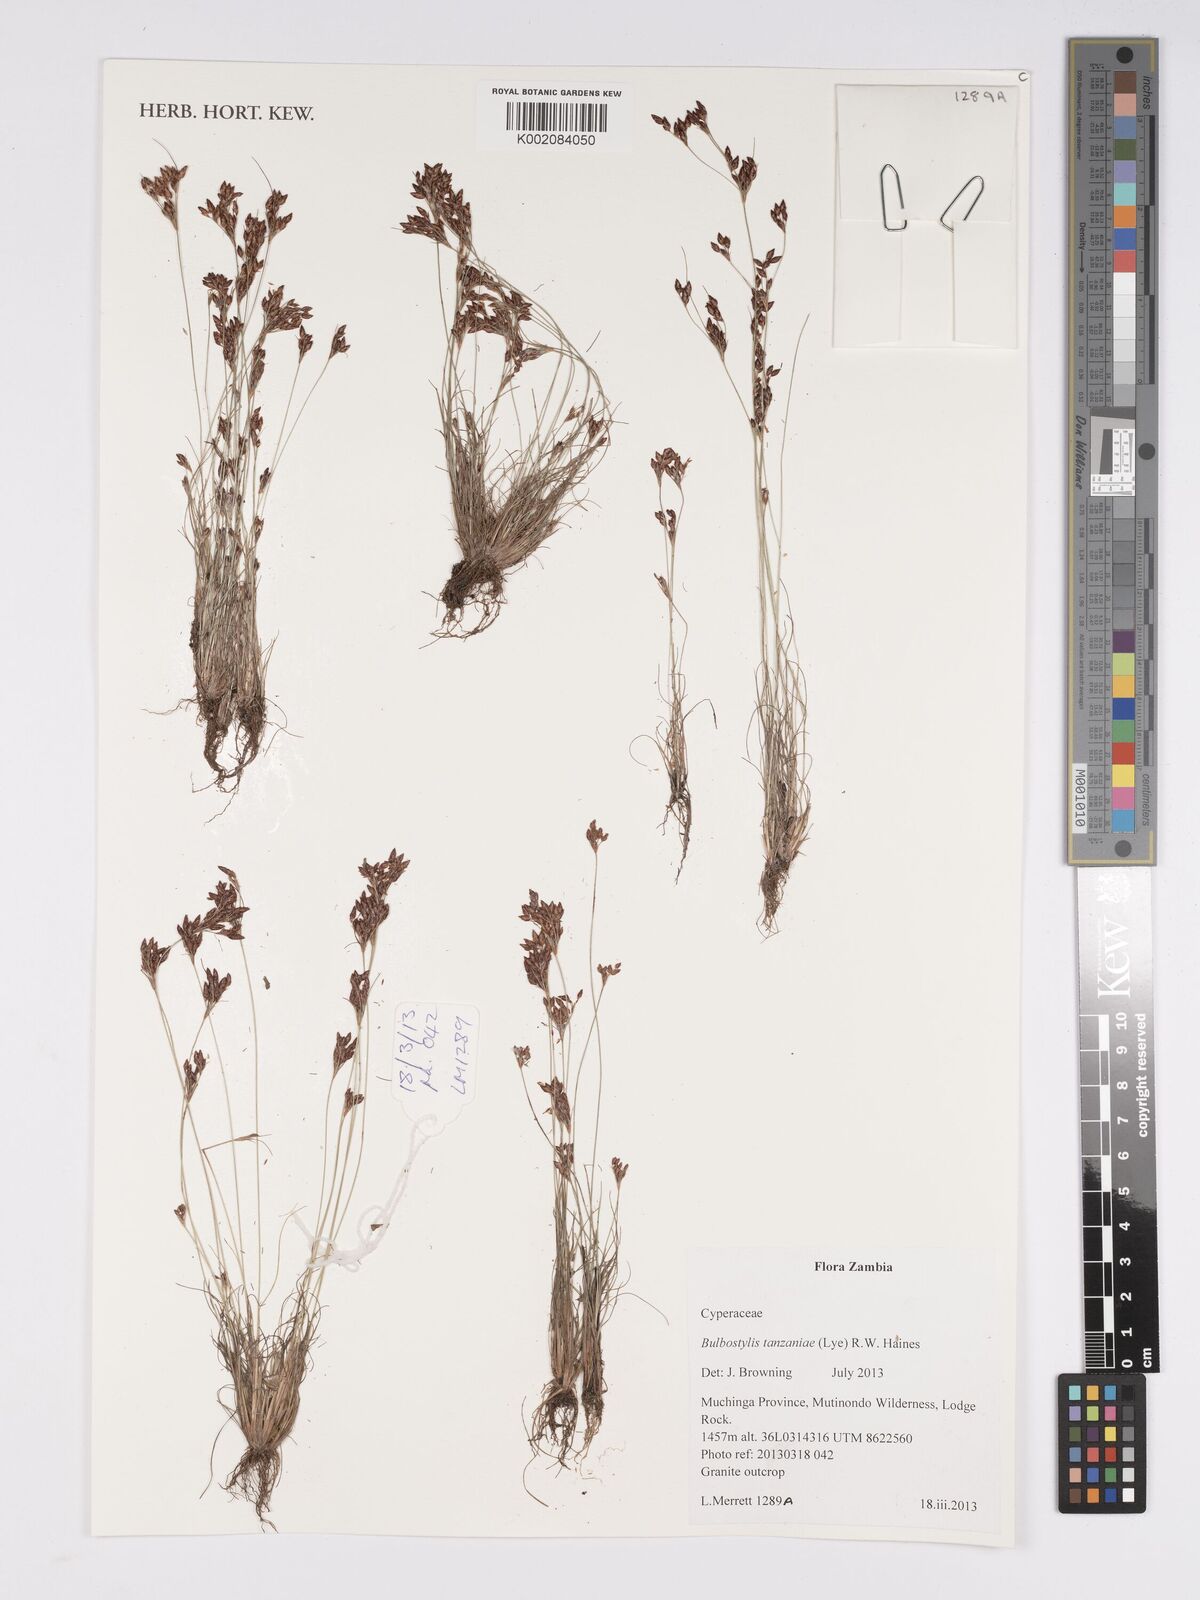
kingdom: Plantae
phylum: Tracheophyta
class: Liliopsida
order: Poales
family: Cyperaceae
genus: Bulbostylis
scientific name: Bulbostylis tanzaniae
